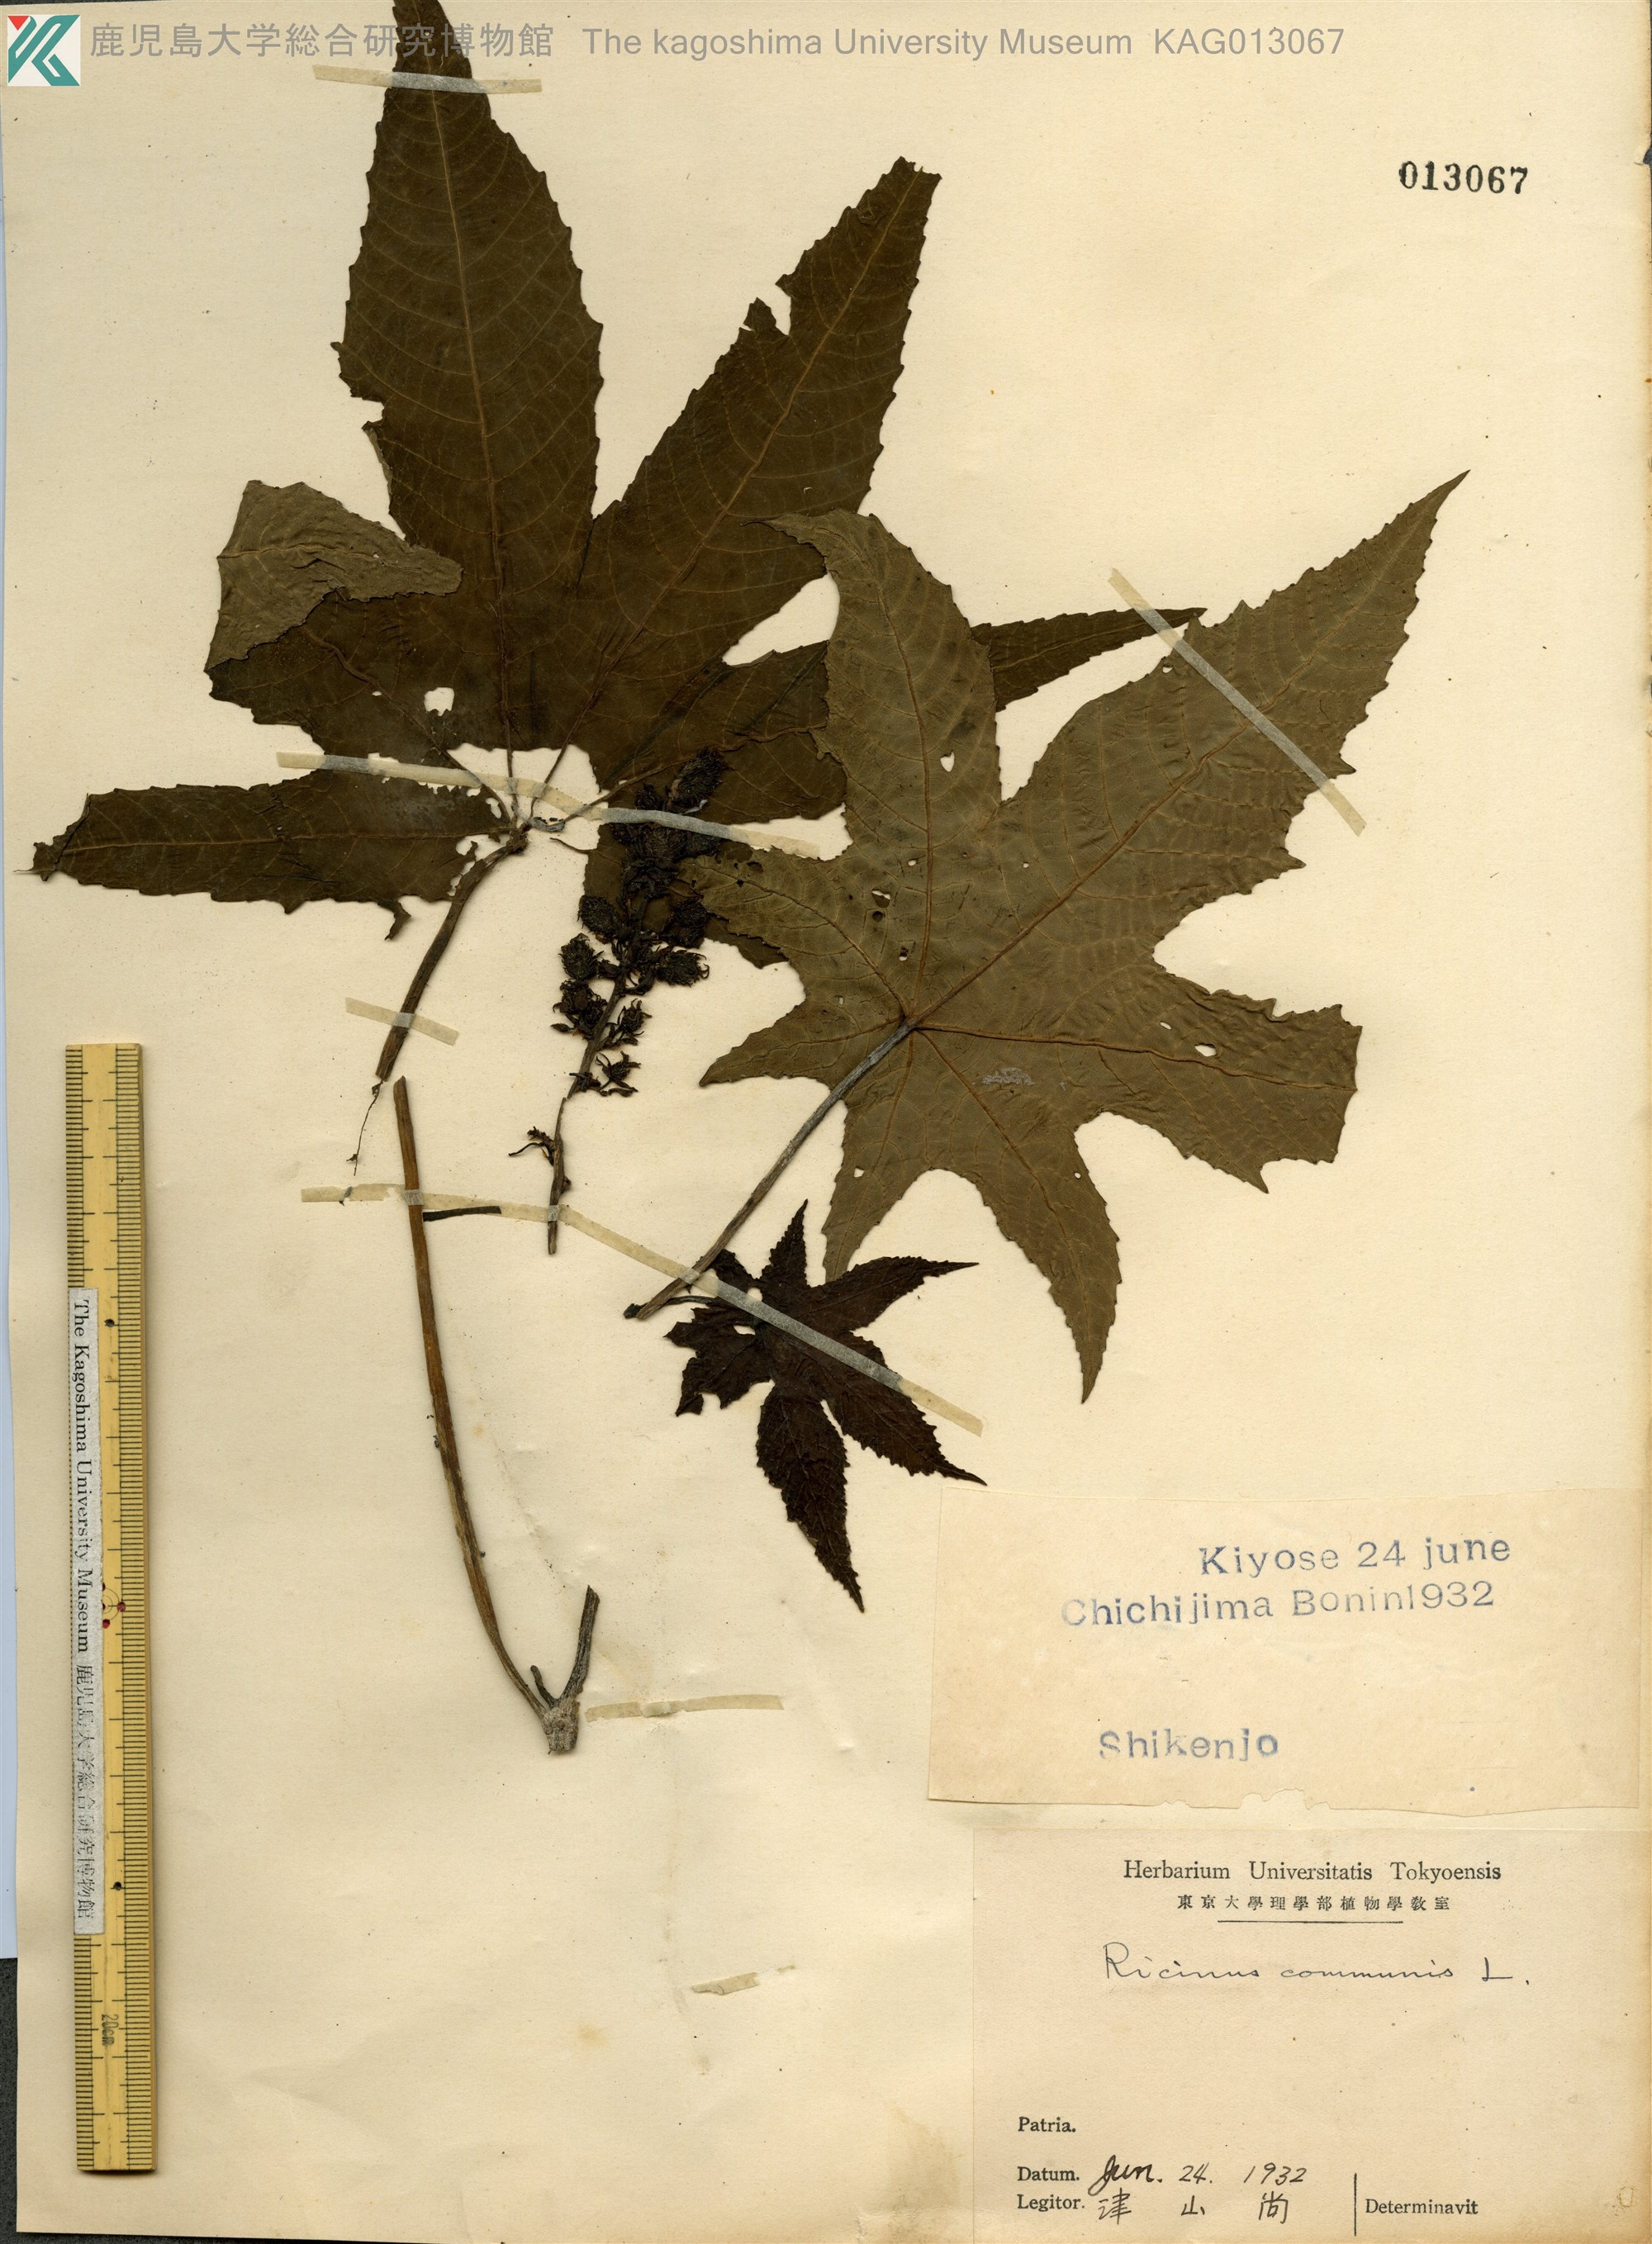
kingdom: Plantae
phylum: Tracheophyta
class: Magnoliopsida
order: Malpighiales
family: Euphorbiaceae
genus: Ricinus
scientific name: Ricinus communis
